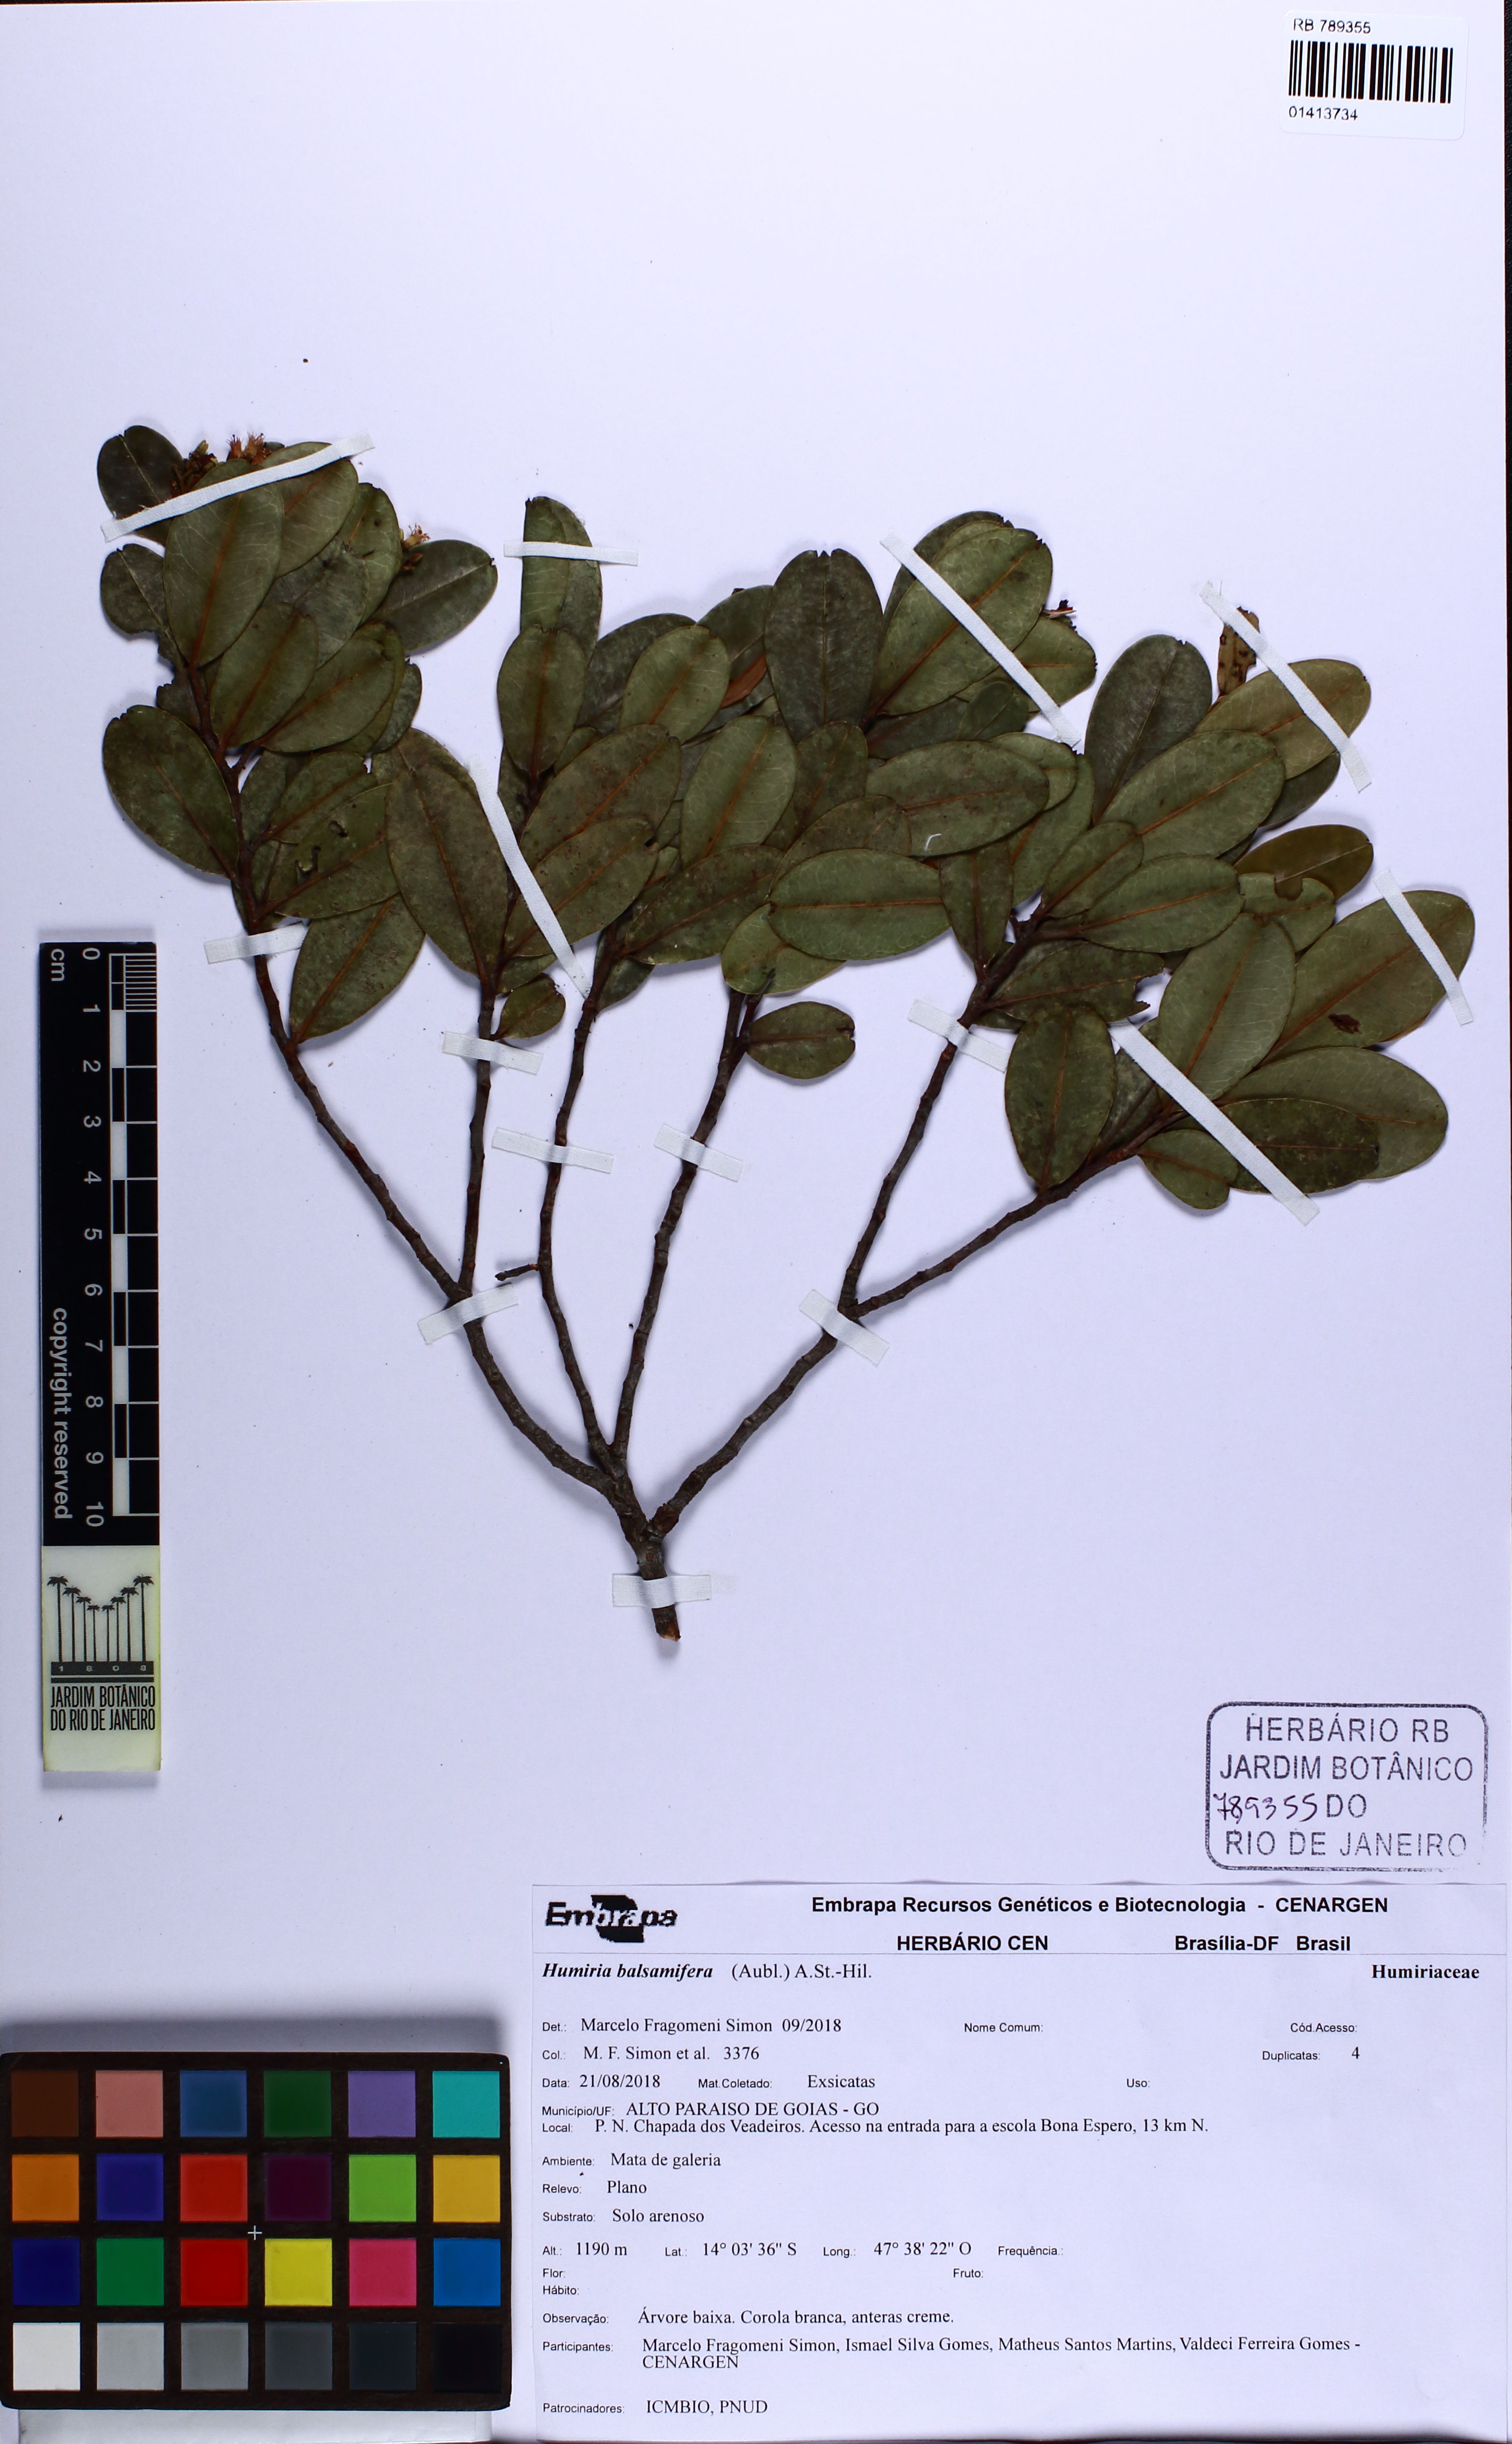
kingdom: Plantae
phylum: Tracheophyta
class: Magnoliopsida
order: Malpighiales
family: Humiriaceae
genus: Humiria
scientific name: Humiria balsamifera
